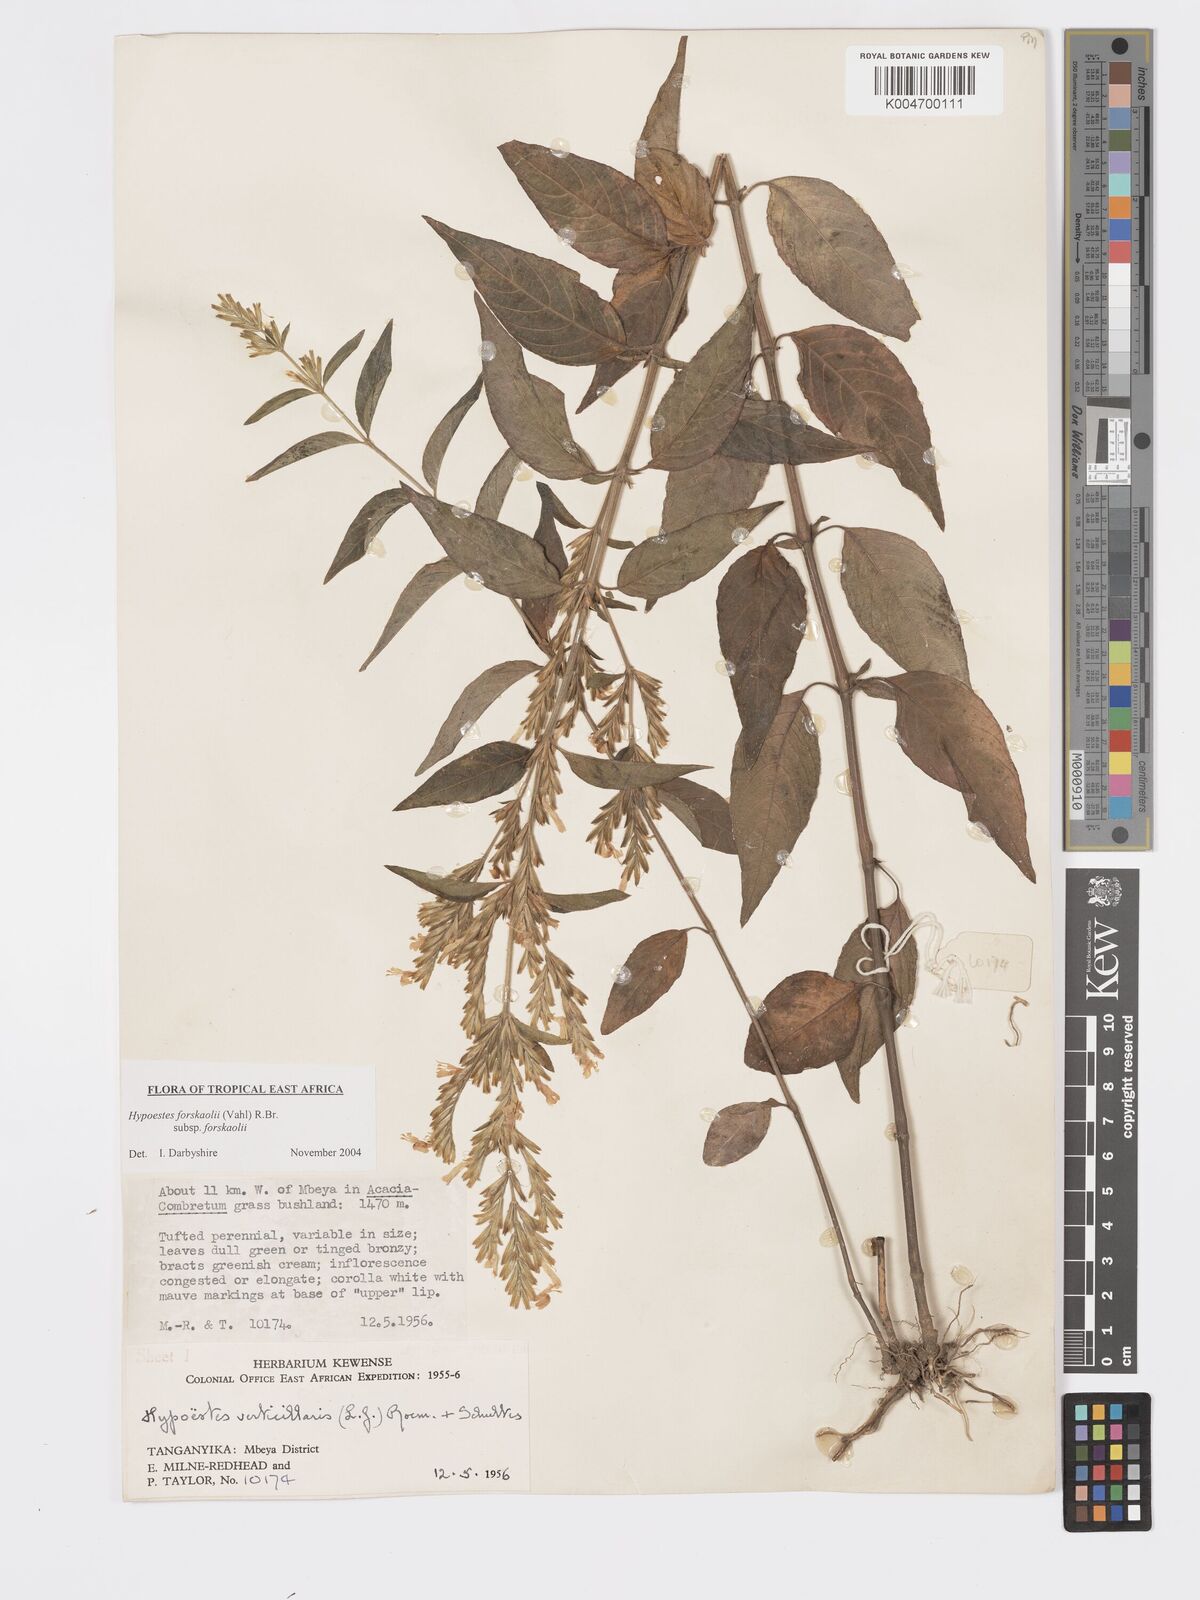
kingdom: Plantae
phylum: Tracheophyta
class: Magnoliopsida
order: Lamiales
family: Acanthaceae
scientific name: Acanthaceae
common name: Acanthaceae
